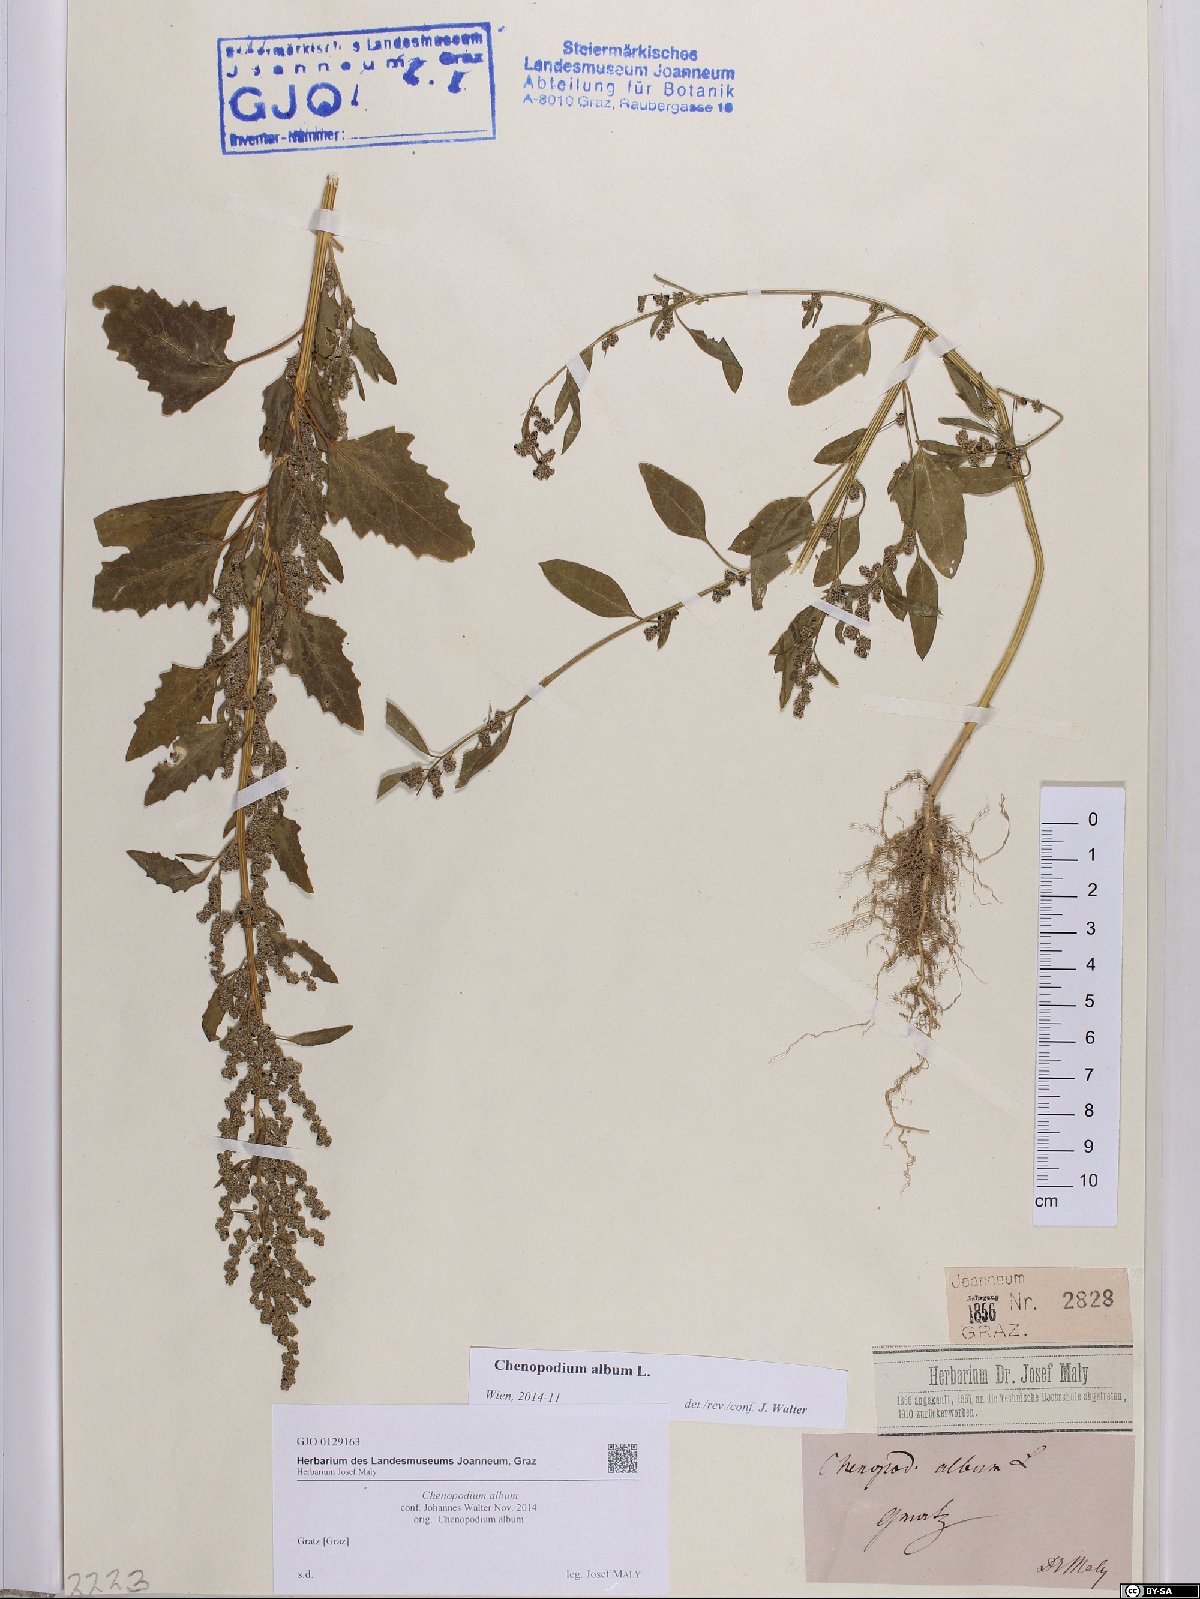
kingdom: Plantae
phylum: Tracheophyta
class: Magnoliopsida
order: Caryophyllales
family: Amaranthaceae
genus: Chenopodium
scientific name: Chenopodium album
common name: Fat-hen
